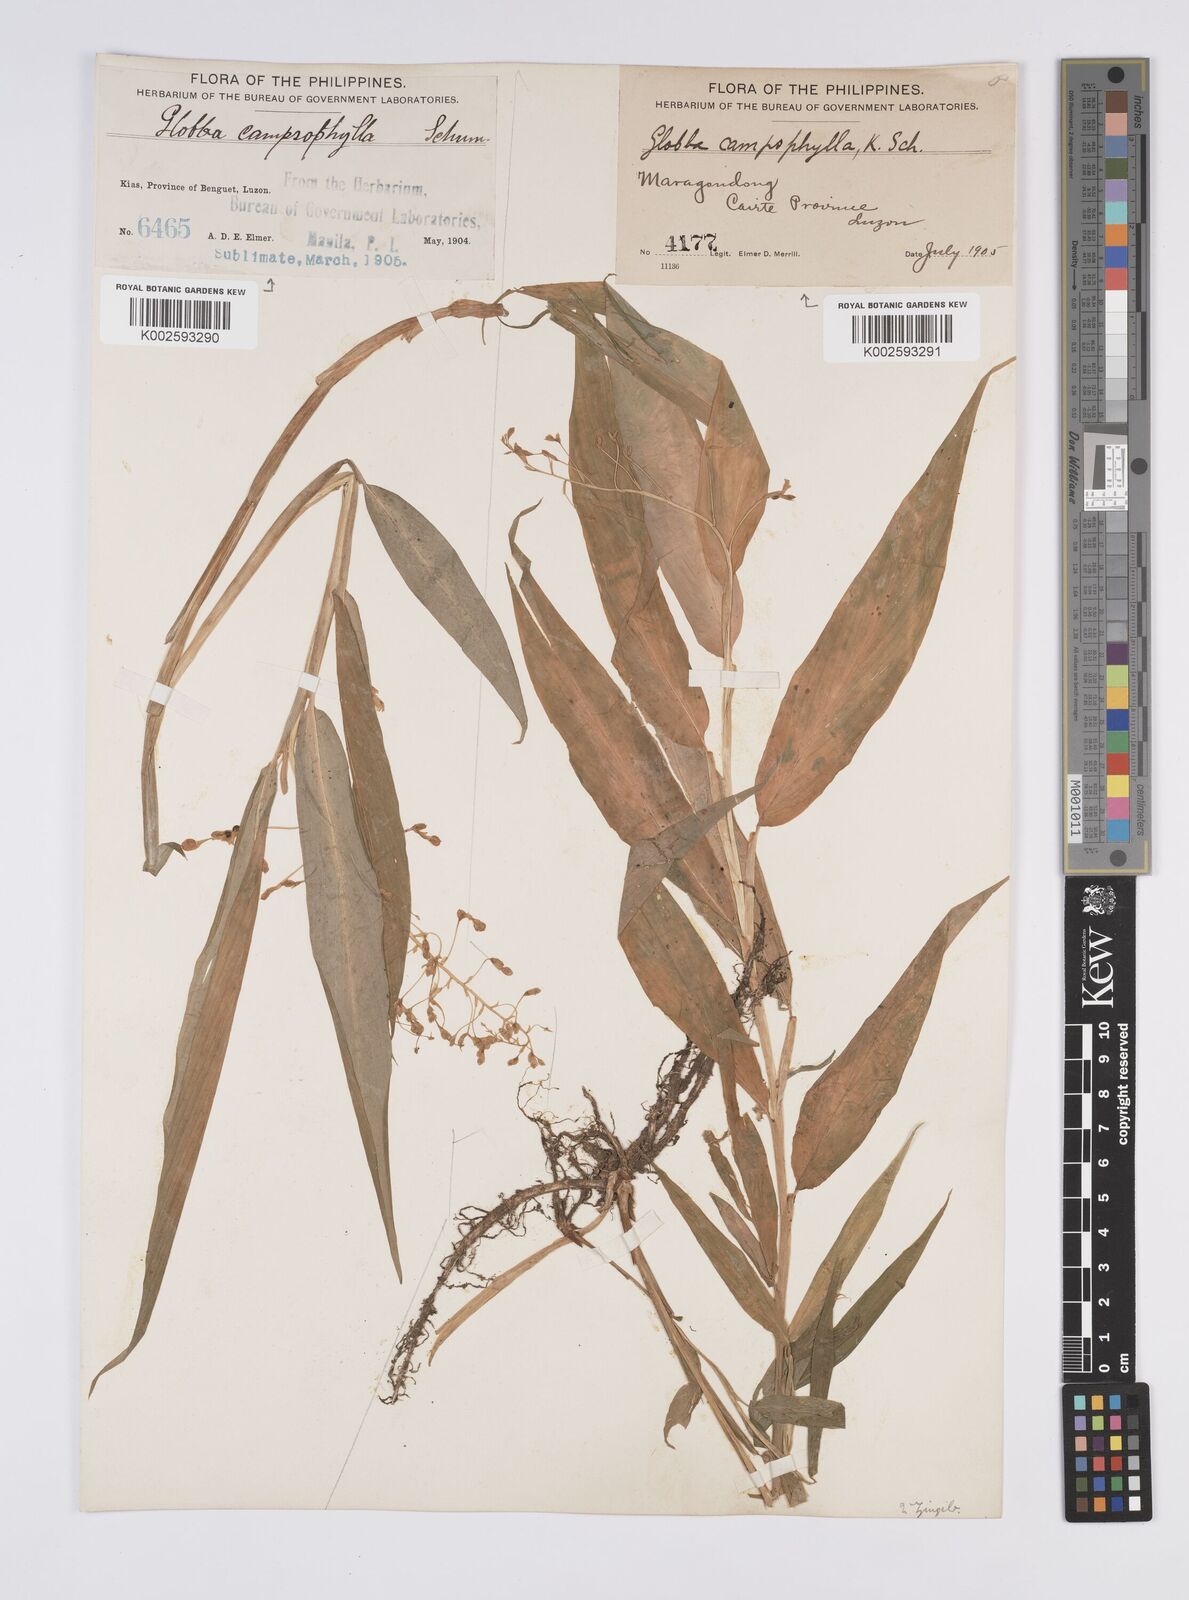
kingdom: Plantae
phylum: Tracheophyta
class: Liliopsida
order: Zingiberales
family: Zingiberaceae
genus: Globba
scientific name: Globba campsophylla
